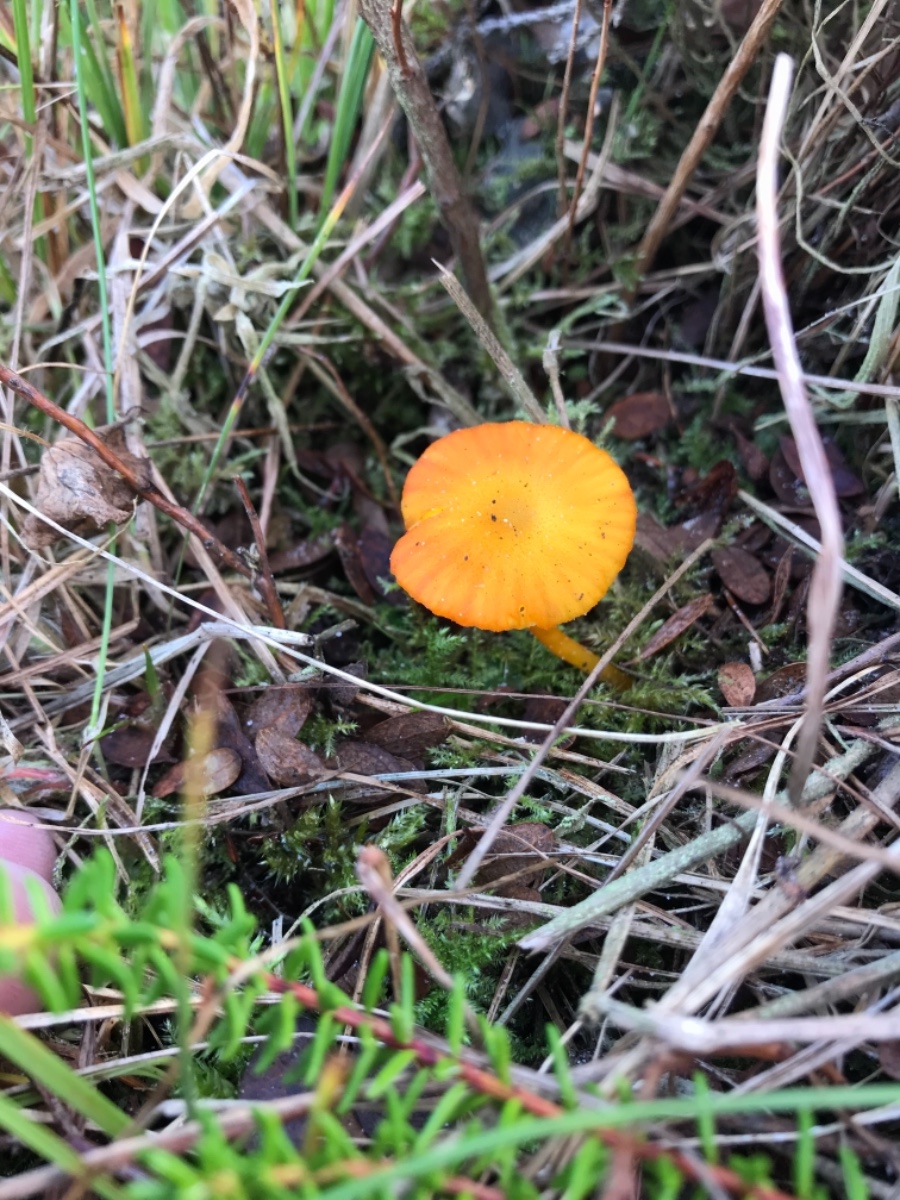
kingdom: Fungi
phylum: Basidiomycota
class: Agaricomycetes
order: Agaricales
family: Hygrophoraceae
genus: Hygrocybe
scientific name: Hygrocybe substrangulata
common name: kær-vokshat
